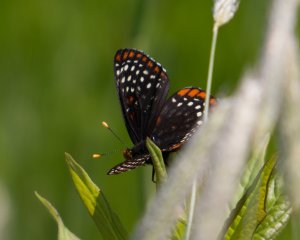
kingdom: Animalia
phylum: Arthropoda
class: Insecta
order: Lepidoptera
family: Nymphalidae
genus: Euphydryas
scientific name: Euphydryas phaeton
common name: Baltimore Checkerspot
